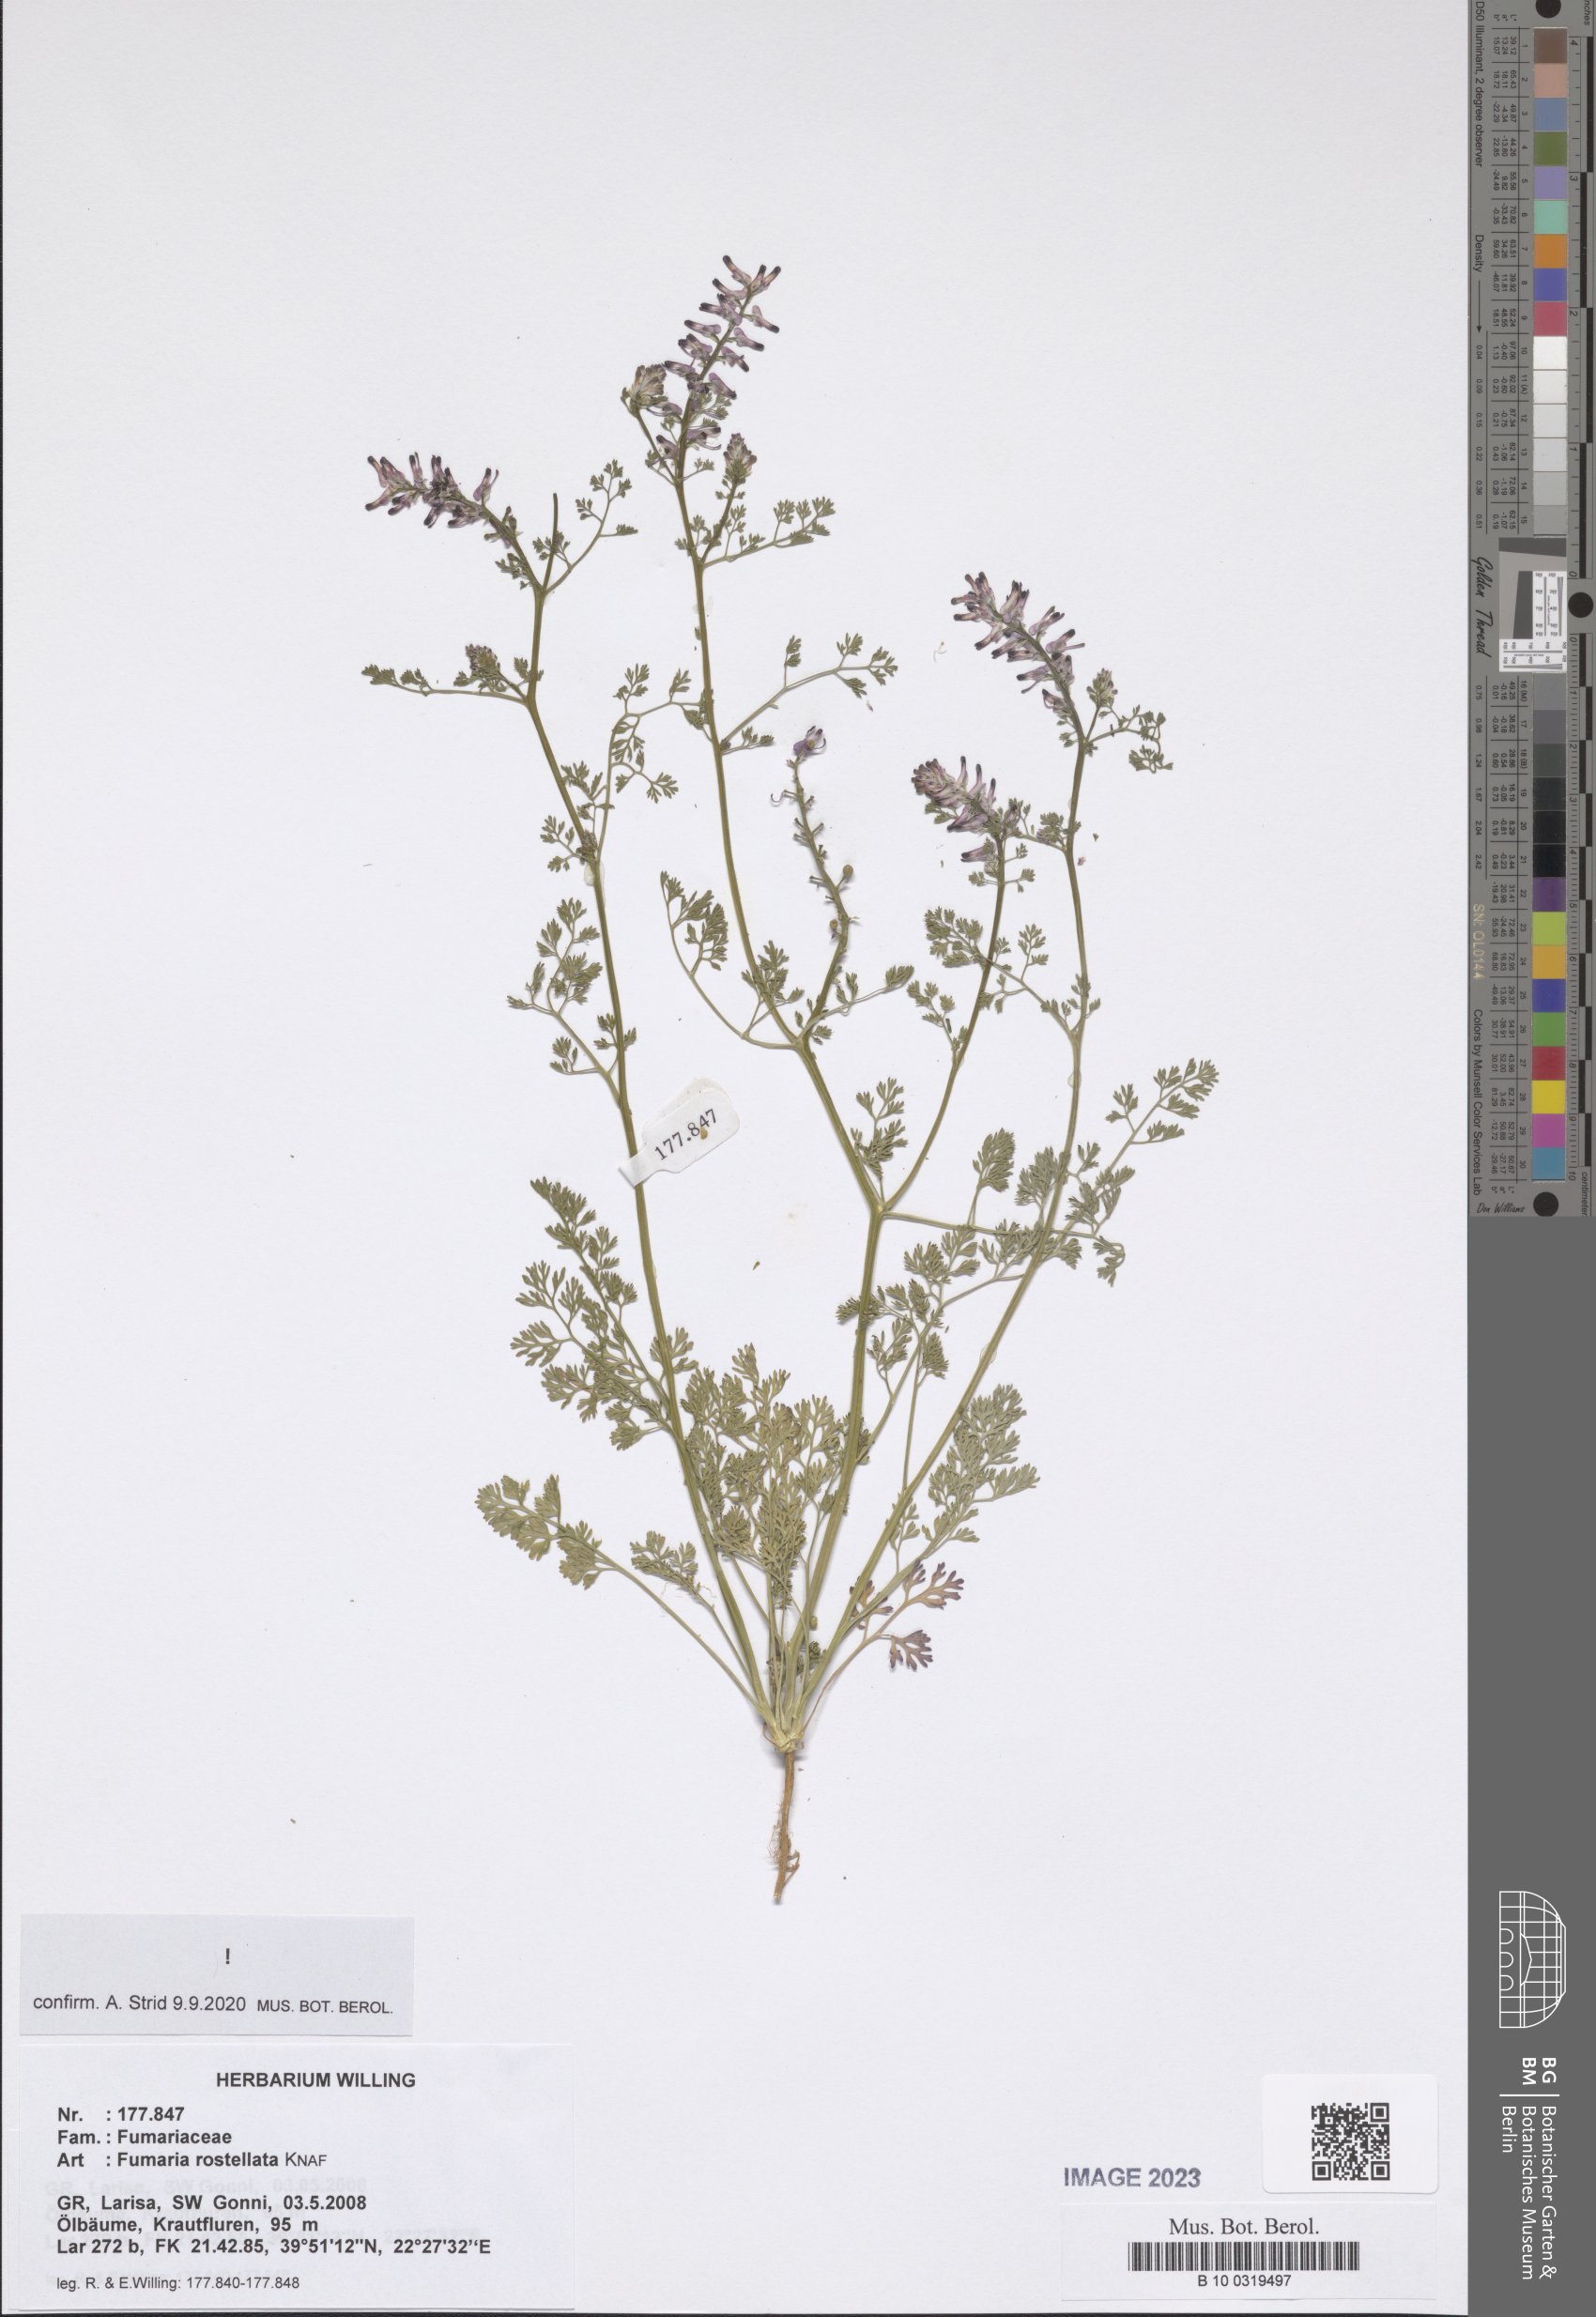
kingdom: Plantae
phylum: Tracheophyta
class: Magnoliopsida
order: Ranunculales
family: Papaveraceae
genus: Fumaria
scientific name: Fumaria rostellata
